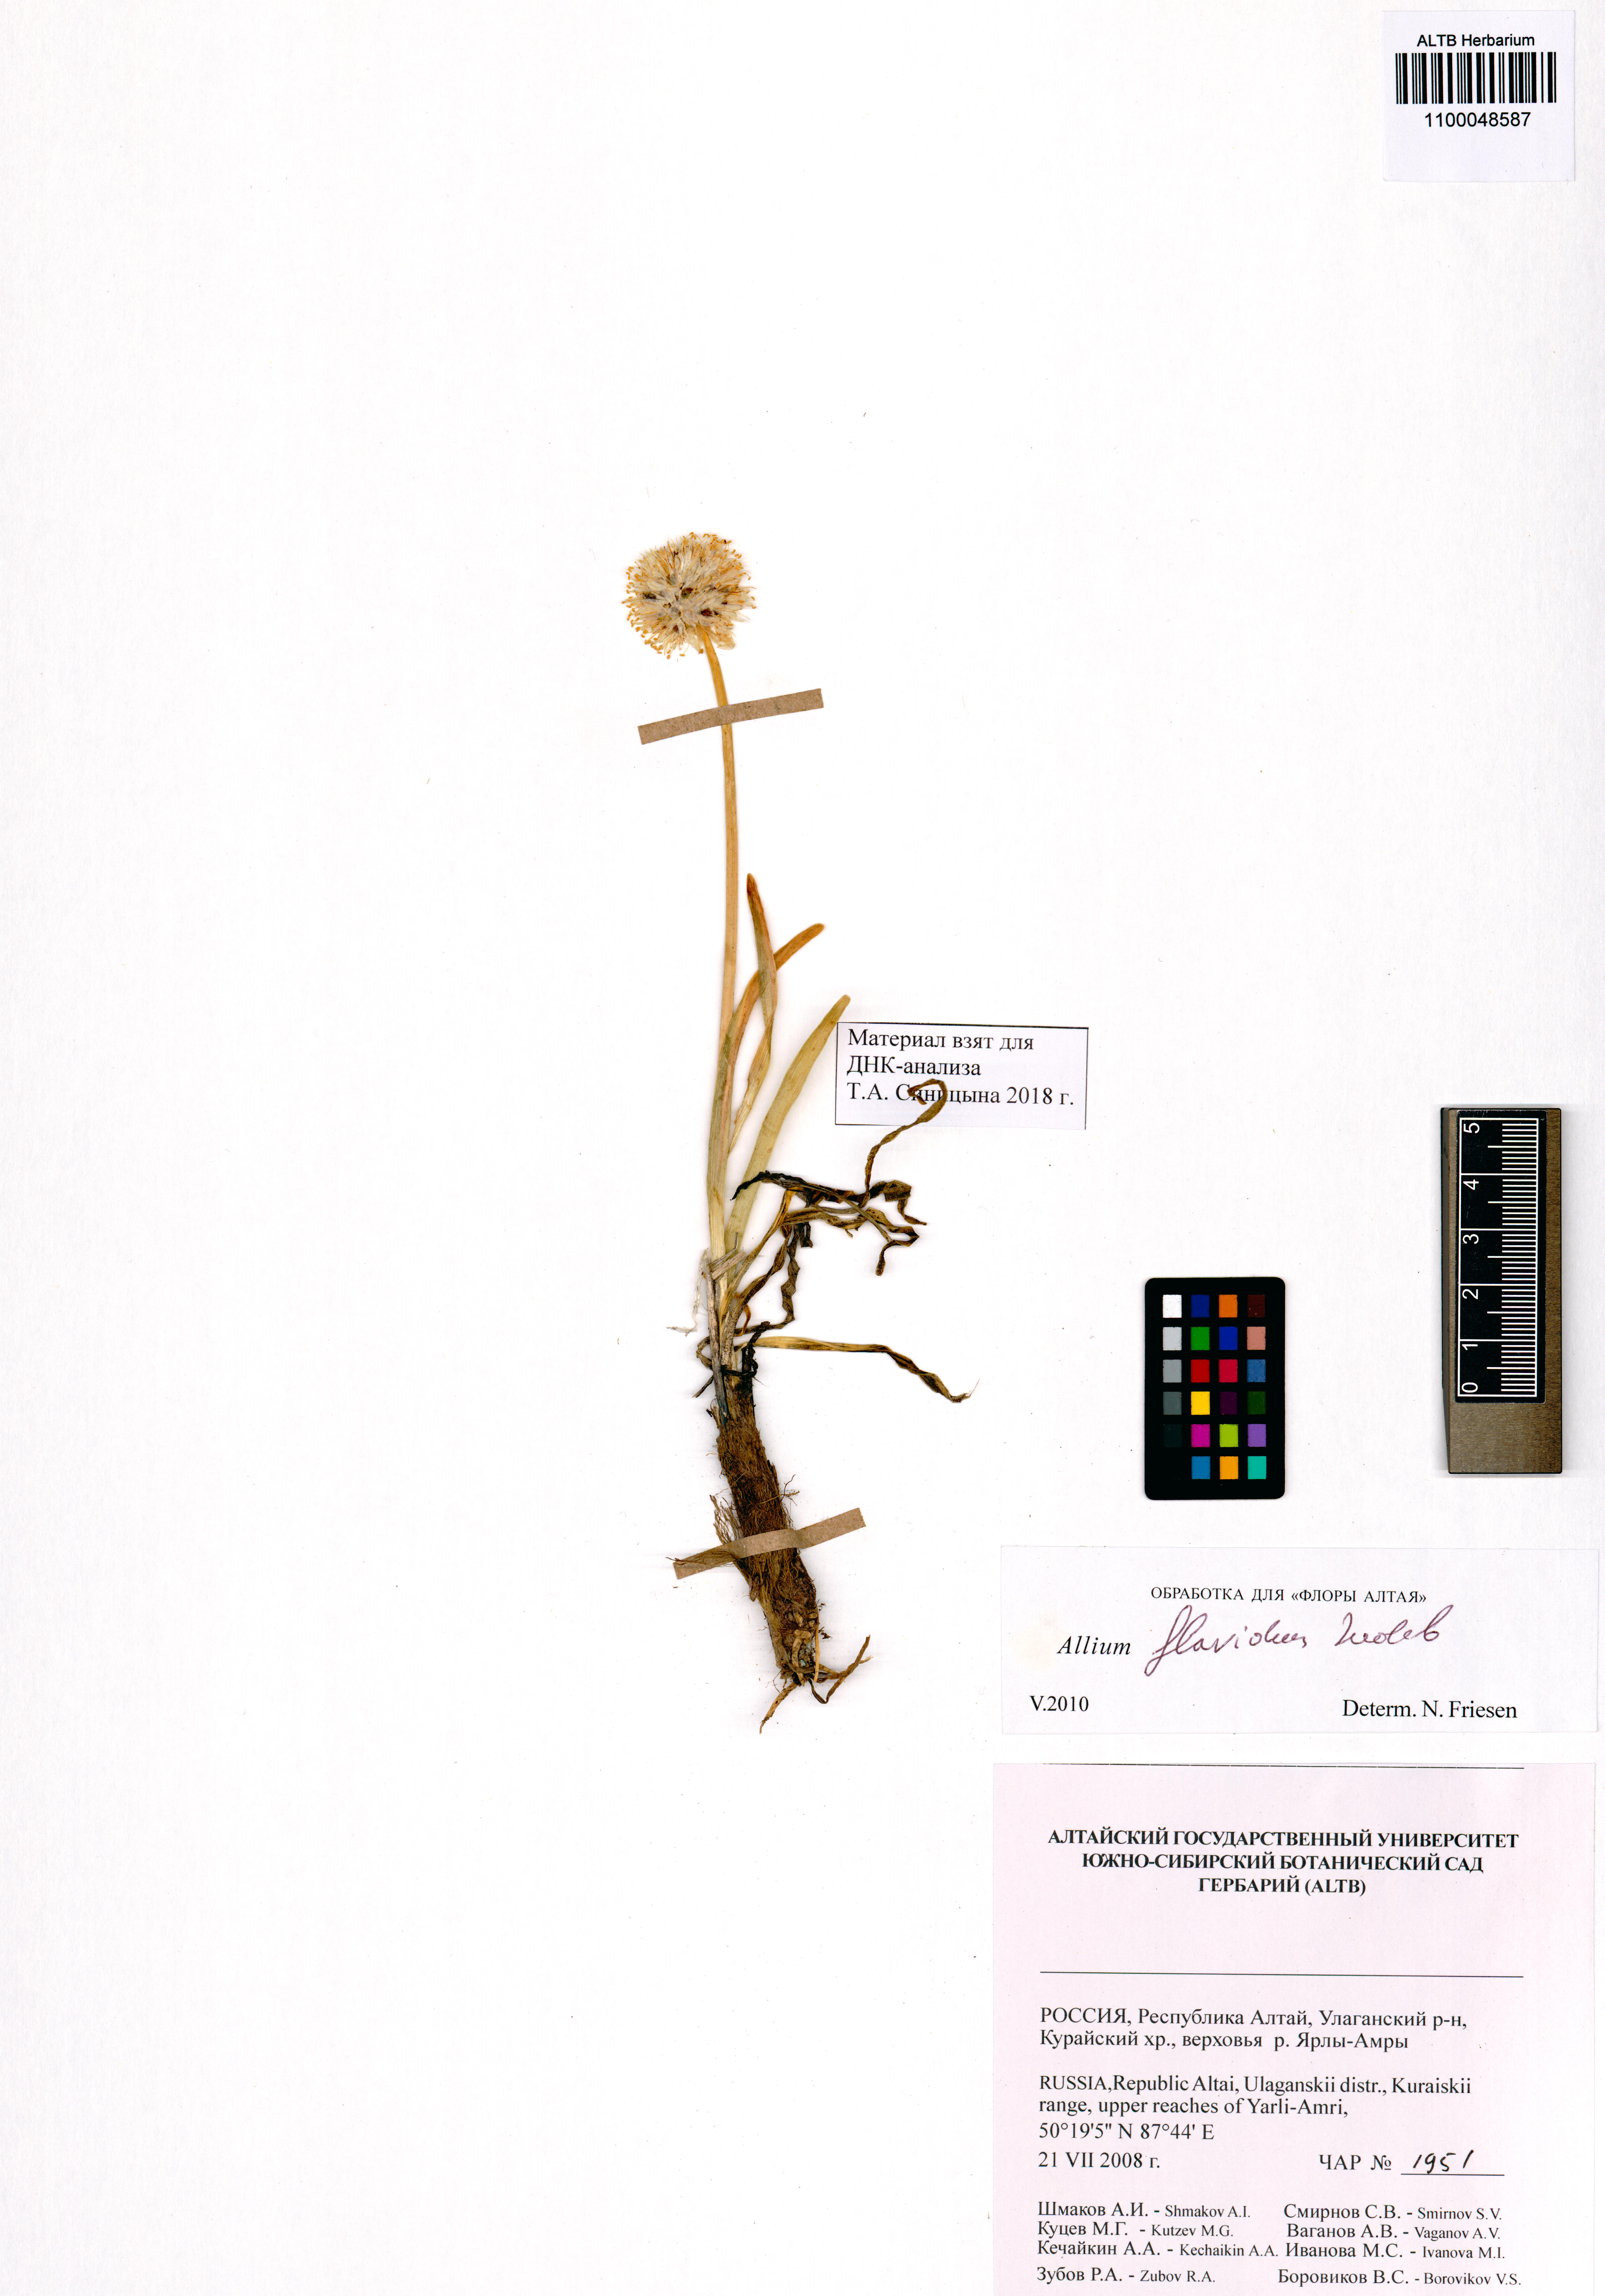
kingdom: Plantae
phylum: Tracheophyta
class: Liliopsida
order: Asparagales
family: Amaryllidaceae
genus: Allium
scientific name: Allium flavidum
